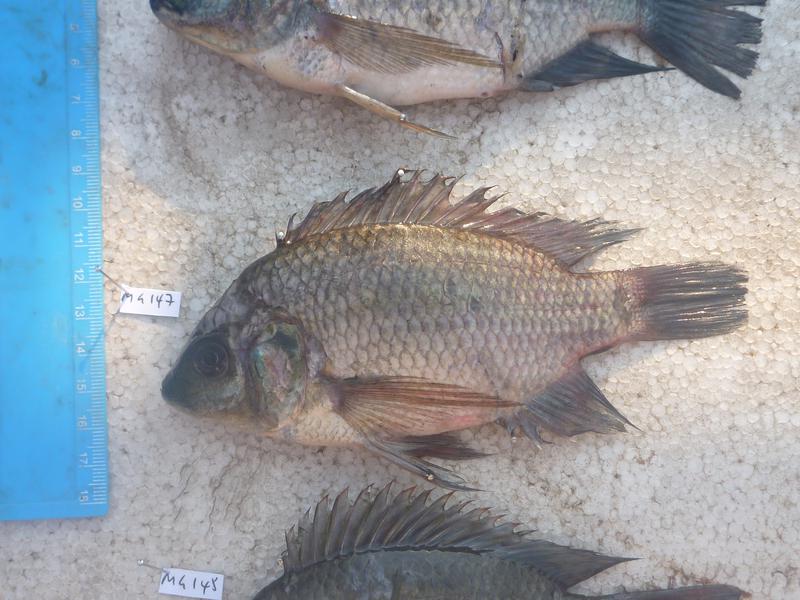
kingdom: Animalia
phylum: Chordata
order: Perciformes
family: Cichlidae
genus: Oreochromis
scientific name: Oreochromis upembae
